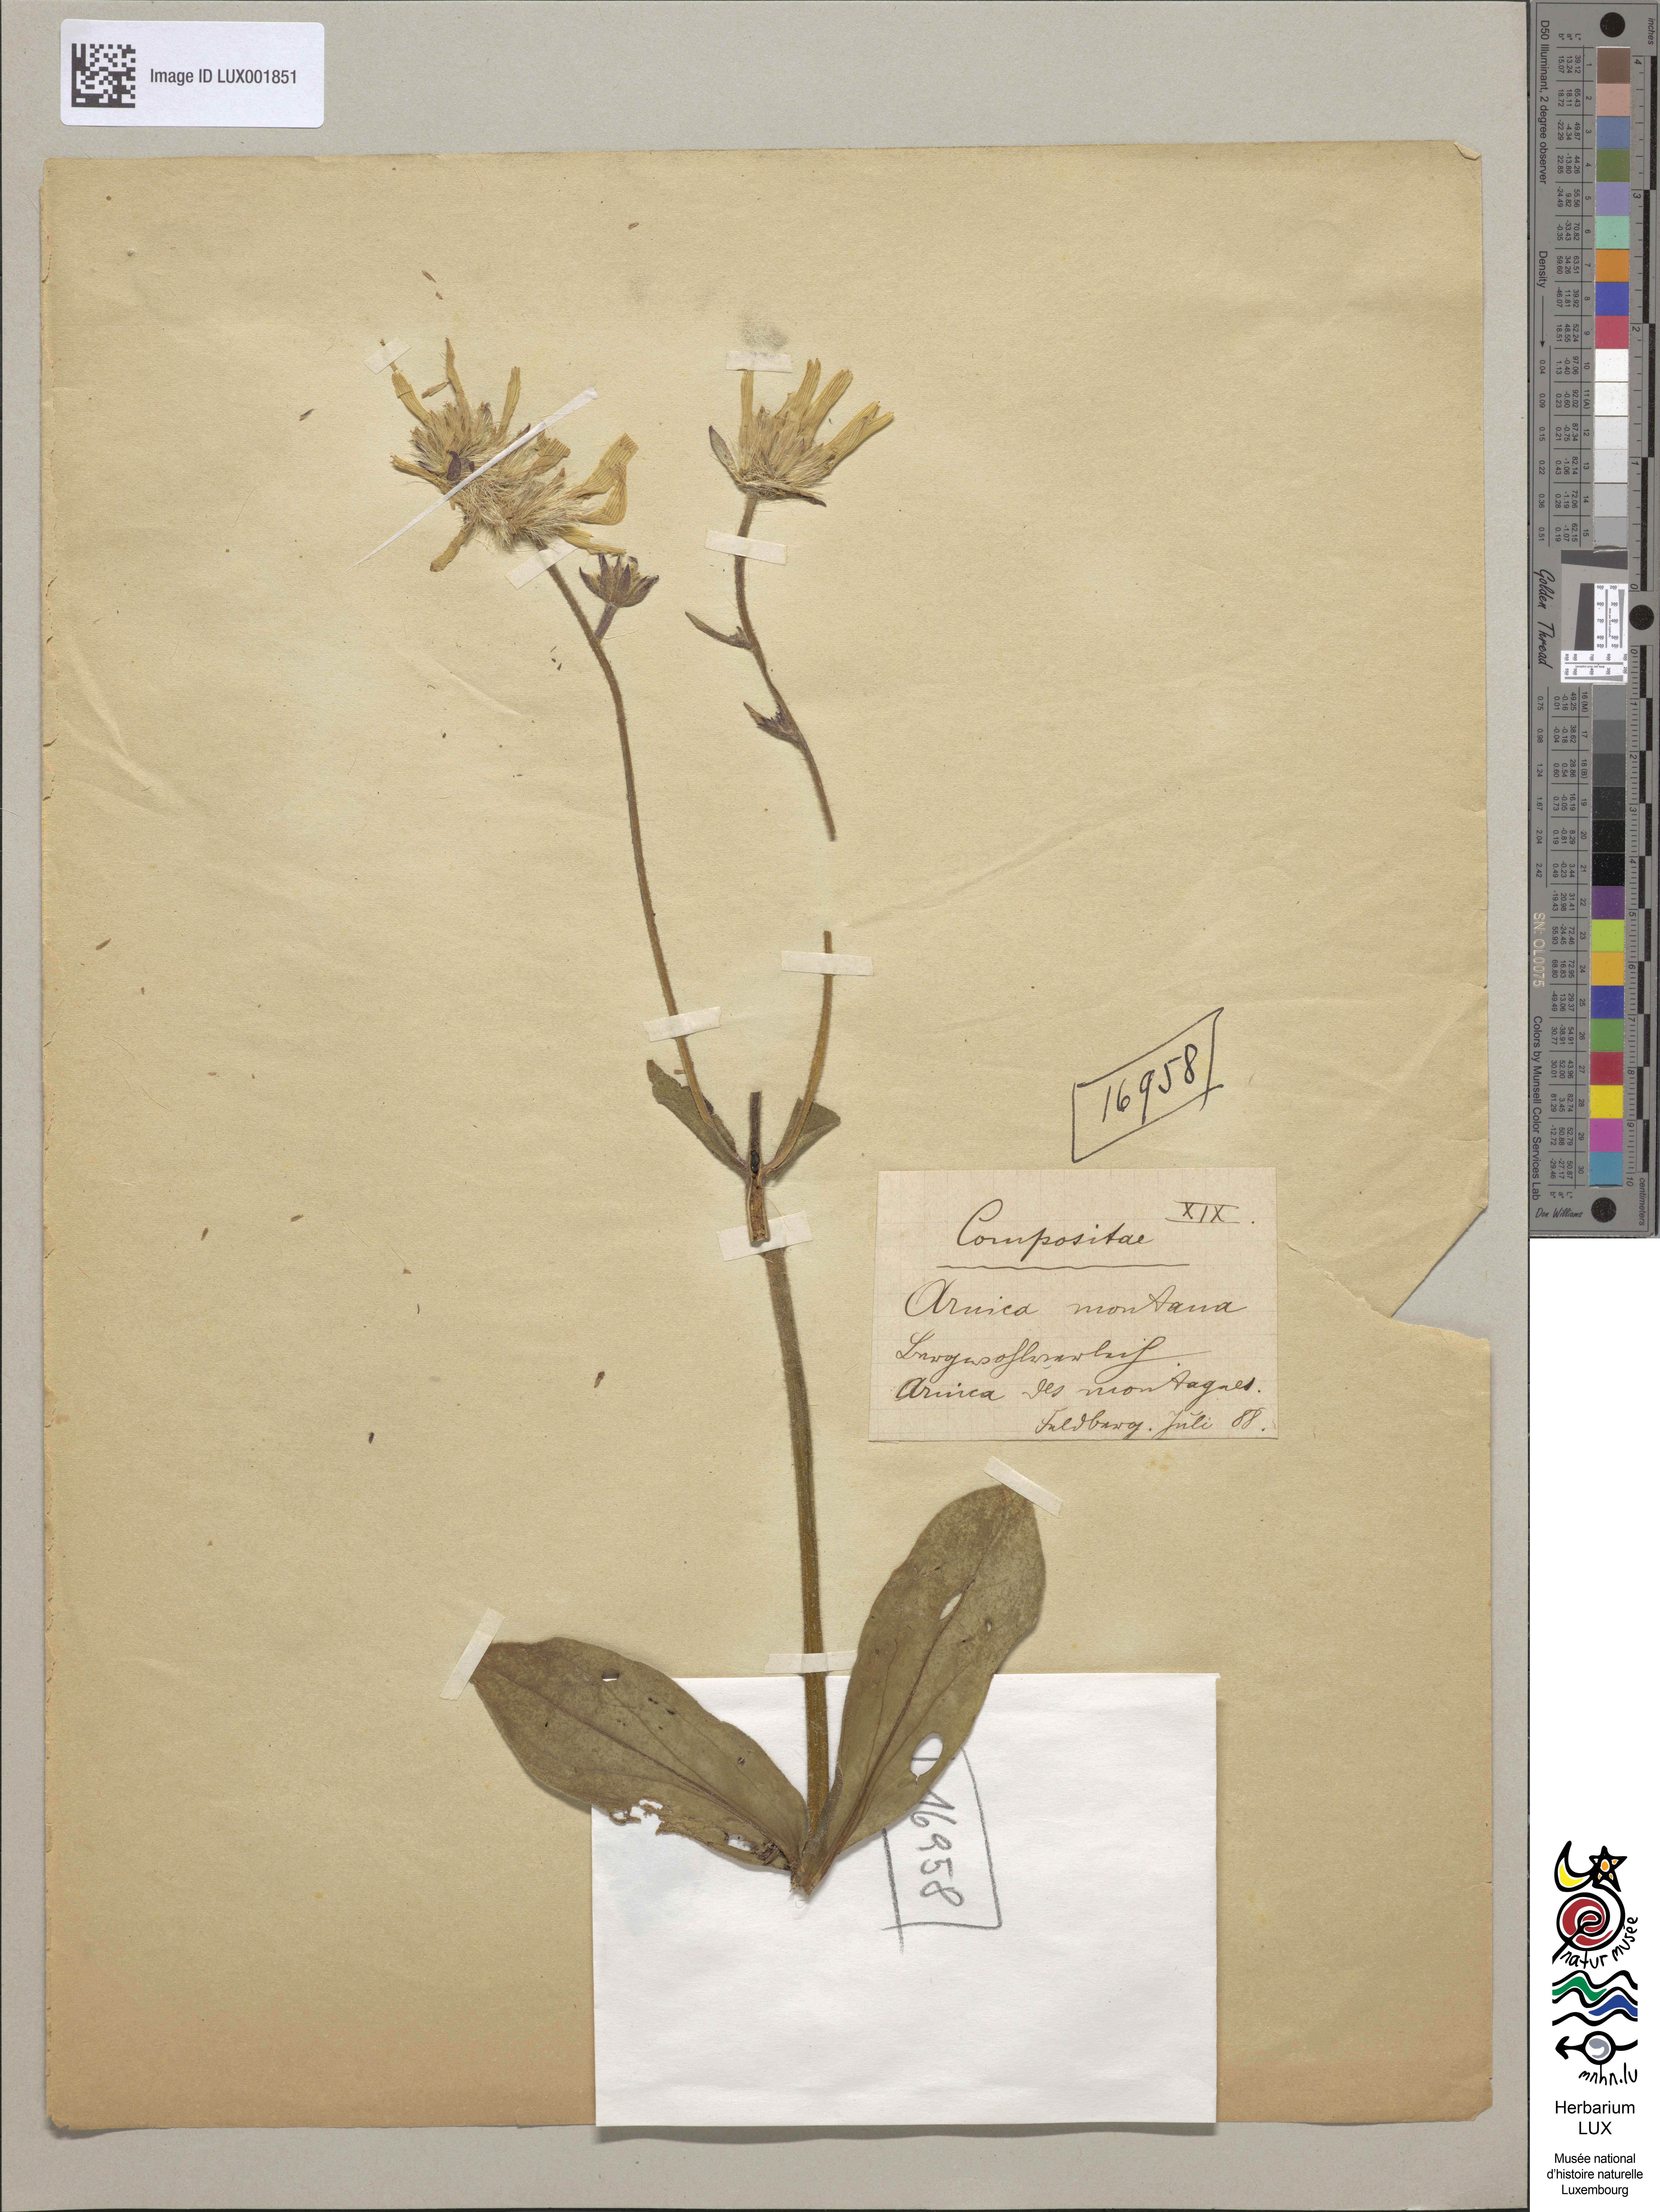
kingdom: Plantae
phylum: Tracheophyta
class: Magnoliopsida
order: Asterales
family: Asteraceae
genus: Arnica
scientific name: Arnica montana
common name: Leopard's bane
